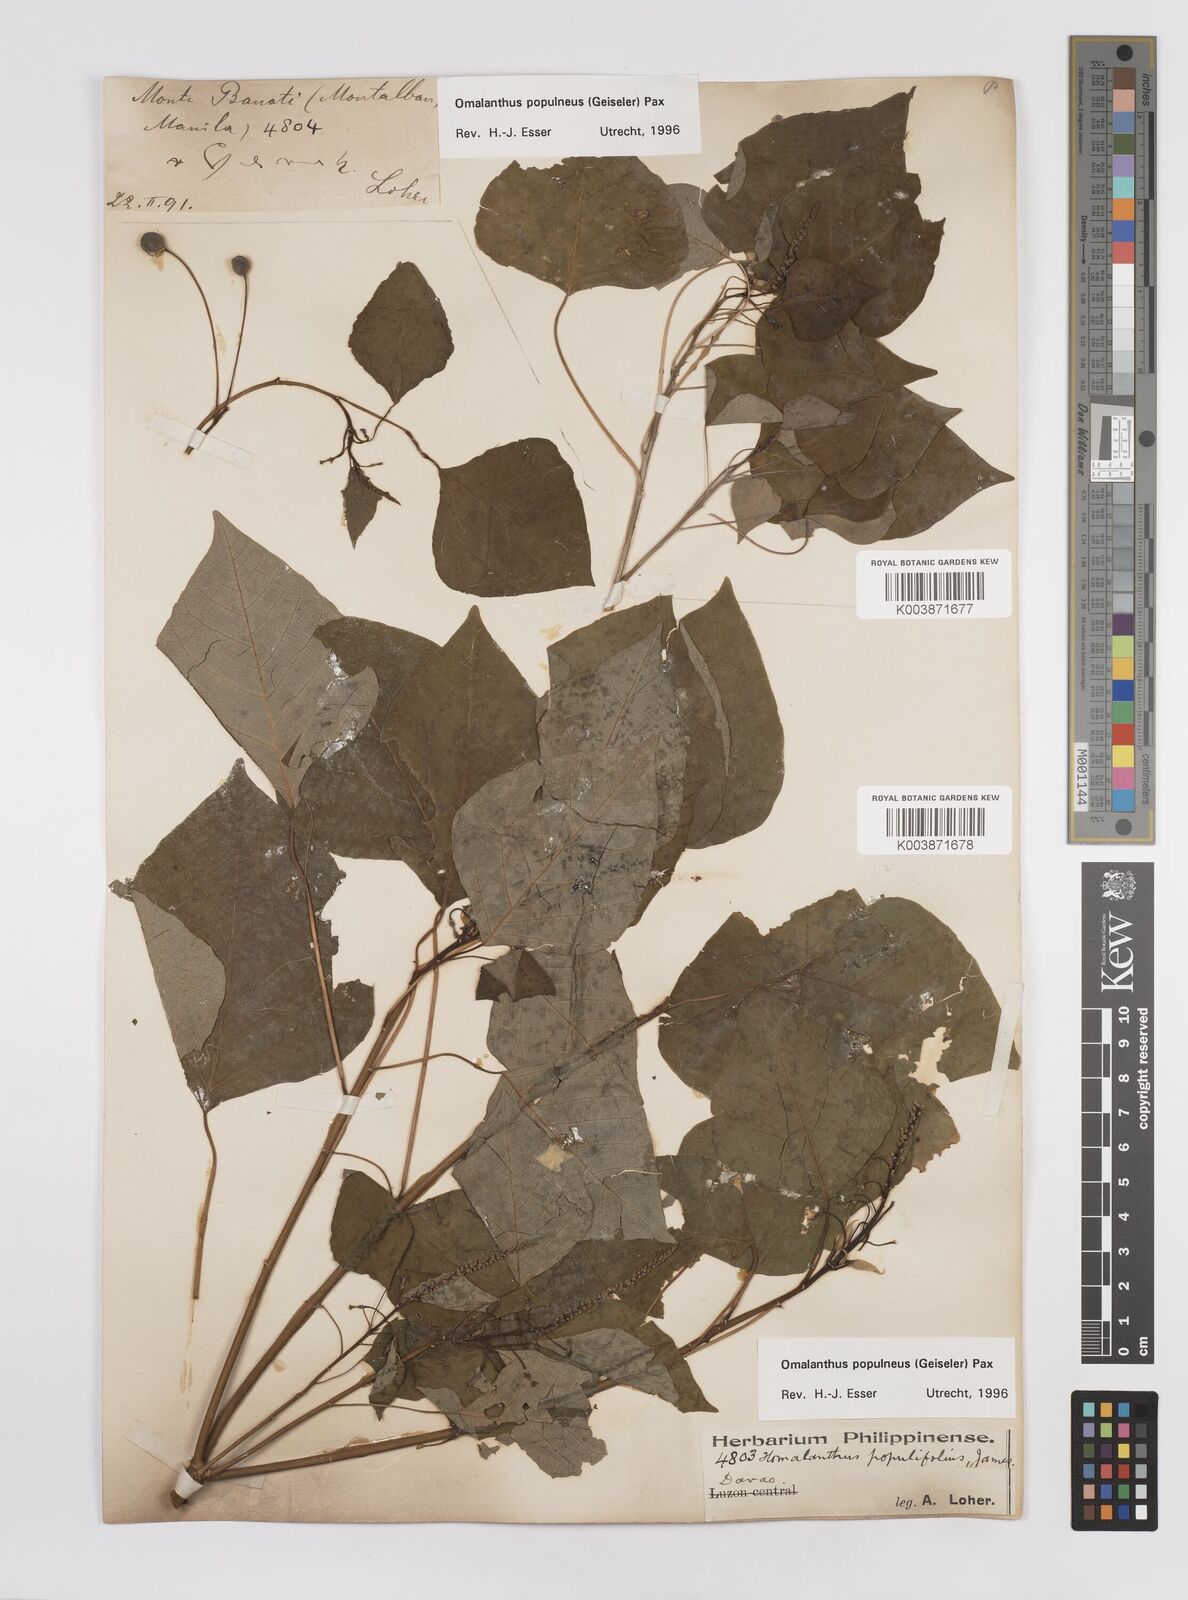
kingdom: Plantae
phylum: Tracheophyta
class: Magnoliopsida
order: Malpighiales
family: Euphorbiaceae
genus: Homalanthus
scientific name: Homalanthus populneus
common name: Spurge
